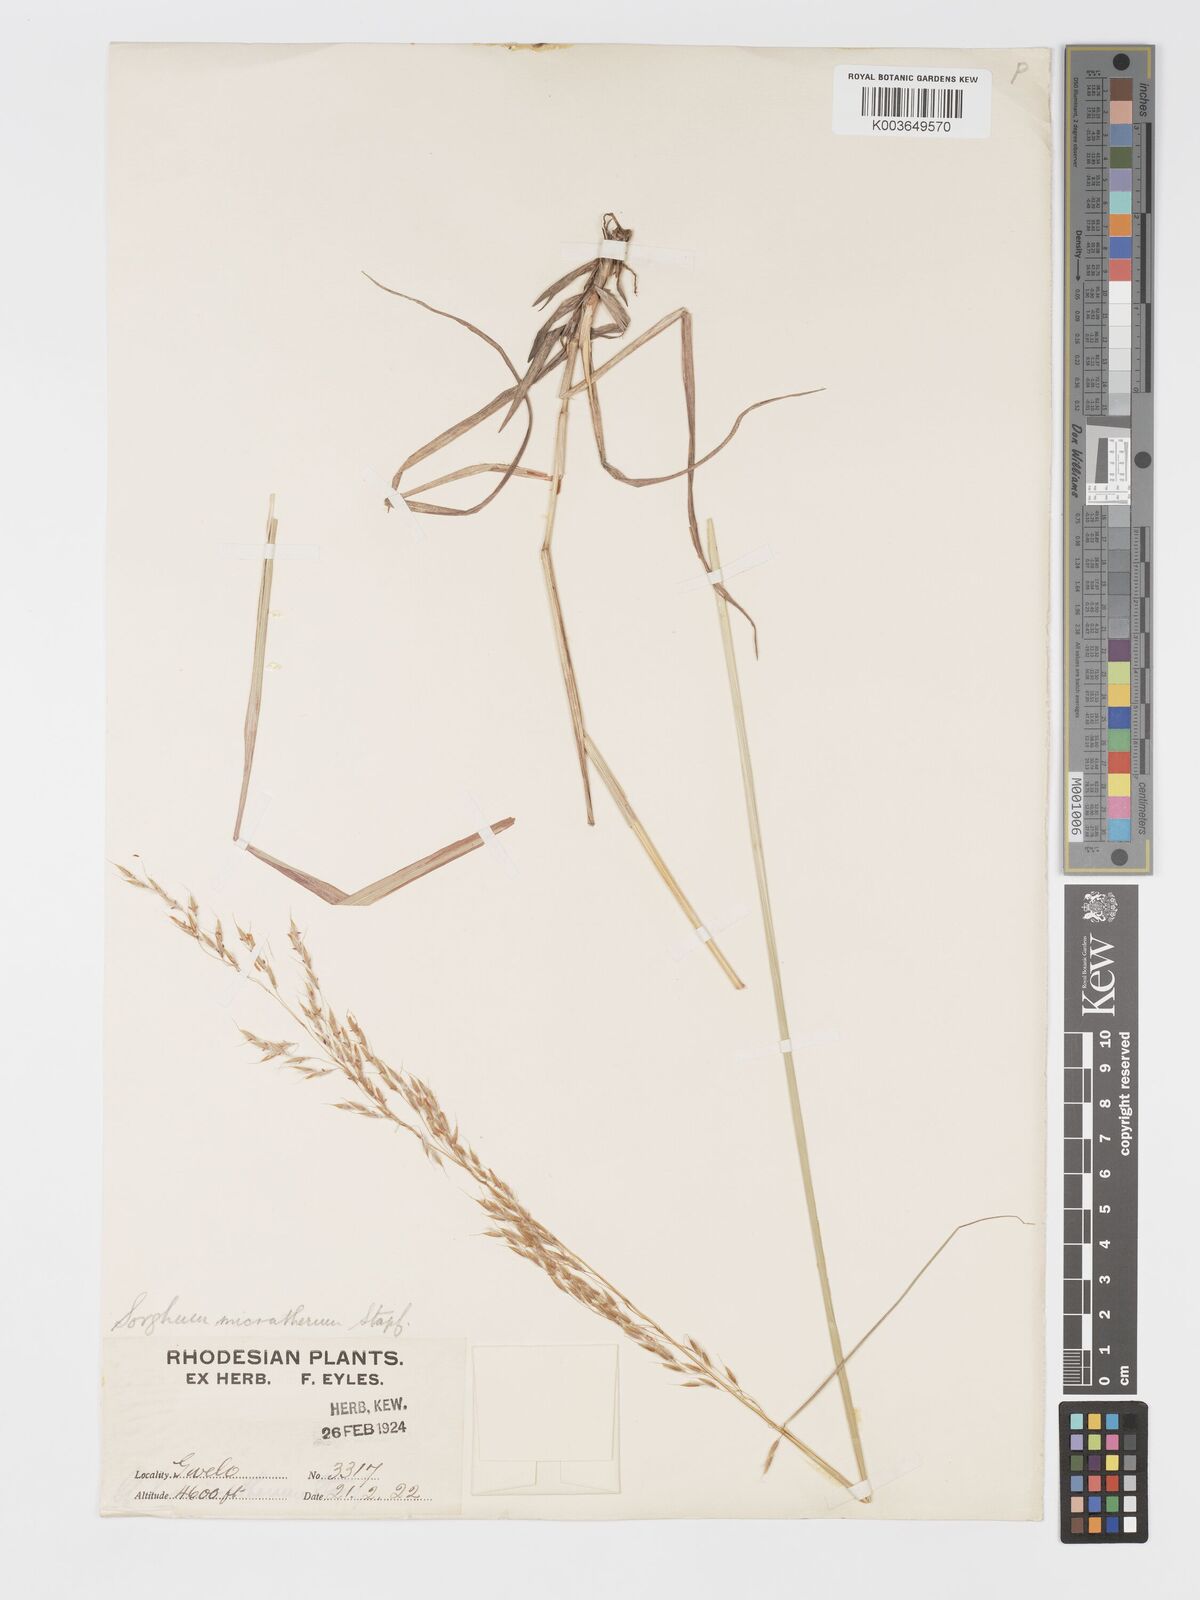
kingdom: Plantae
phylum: Tracheophyta
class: Liliopsida
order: Poales
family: Poaceae
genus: Sorghastrum
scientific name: Sorghastrum nudipes
